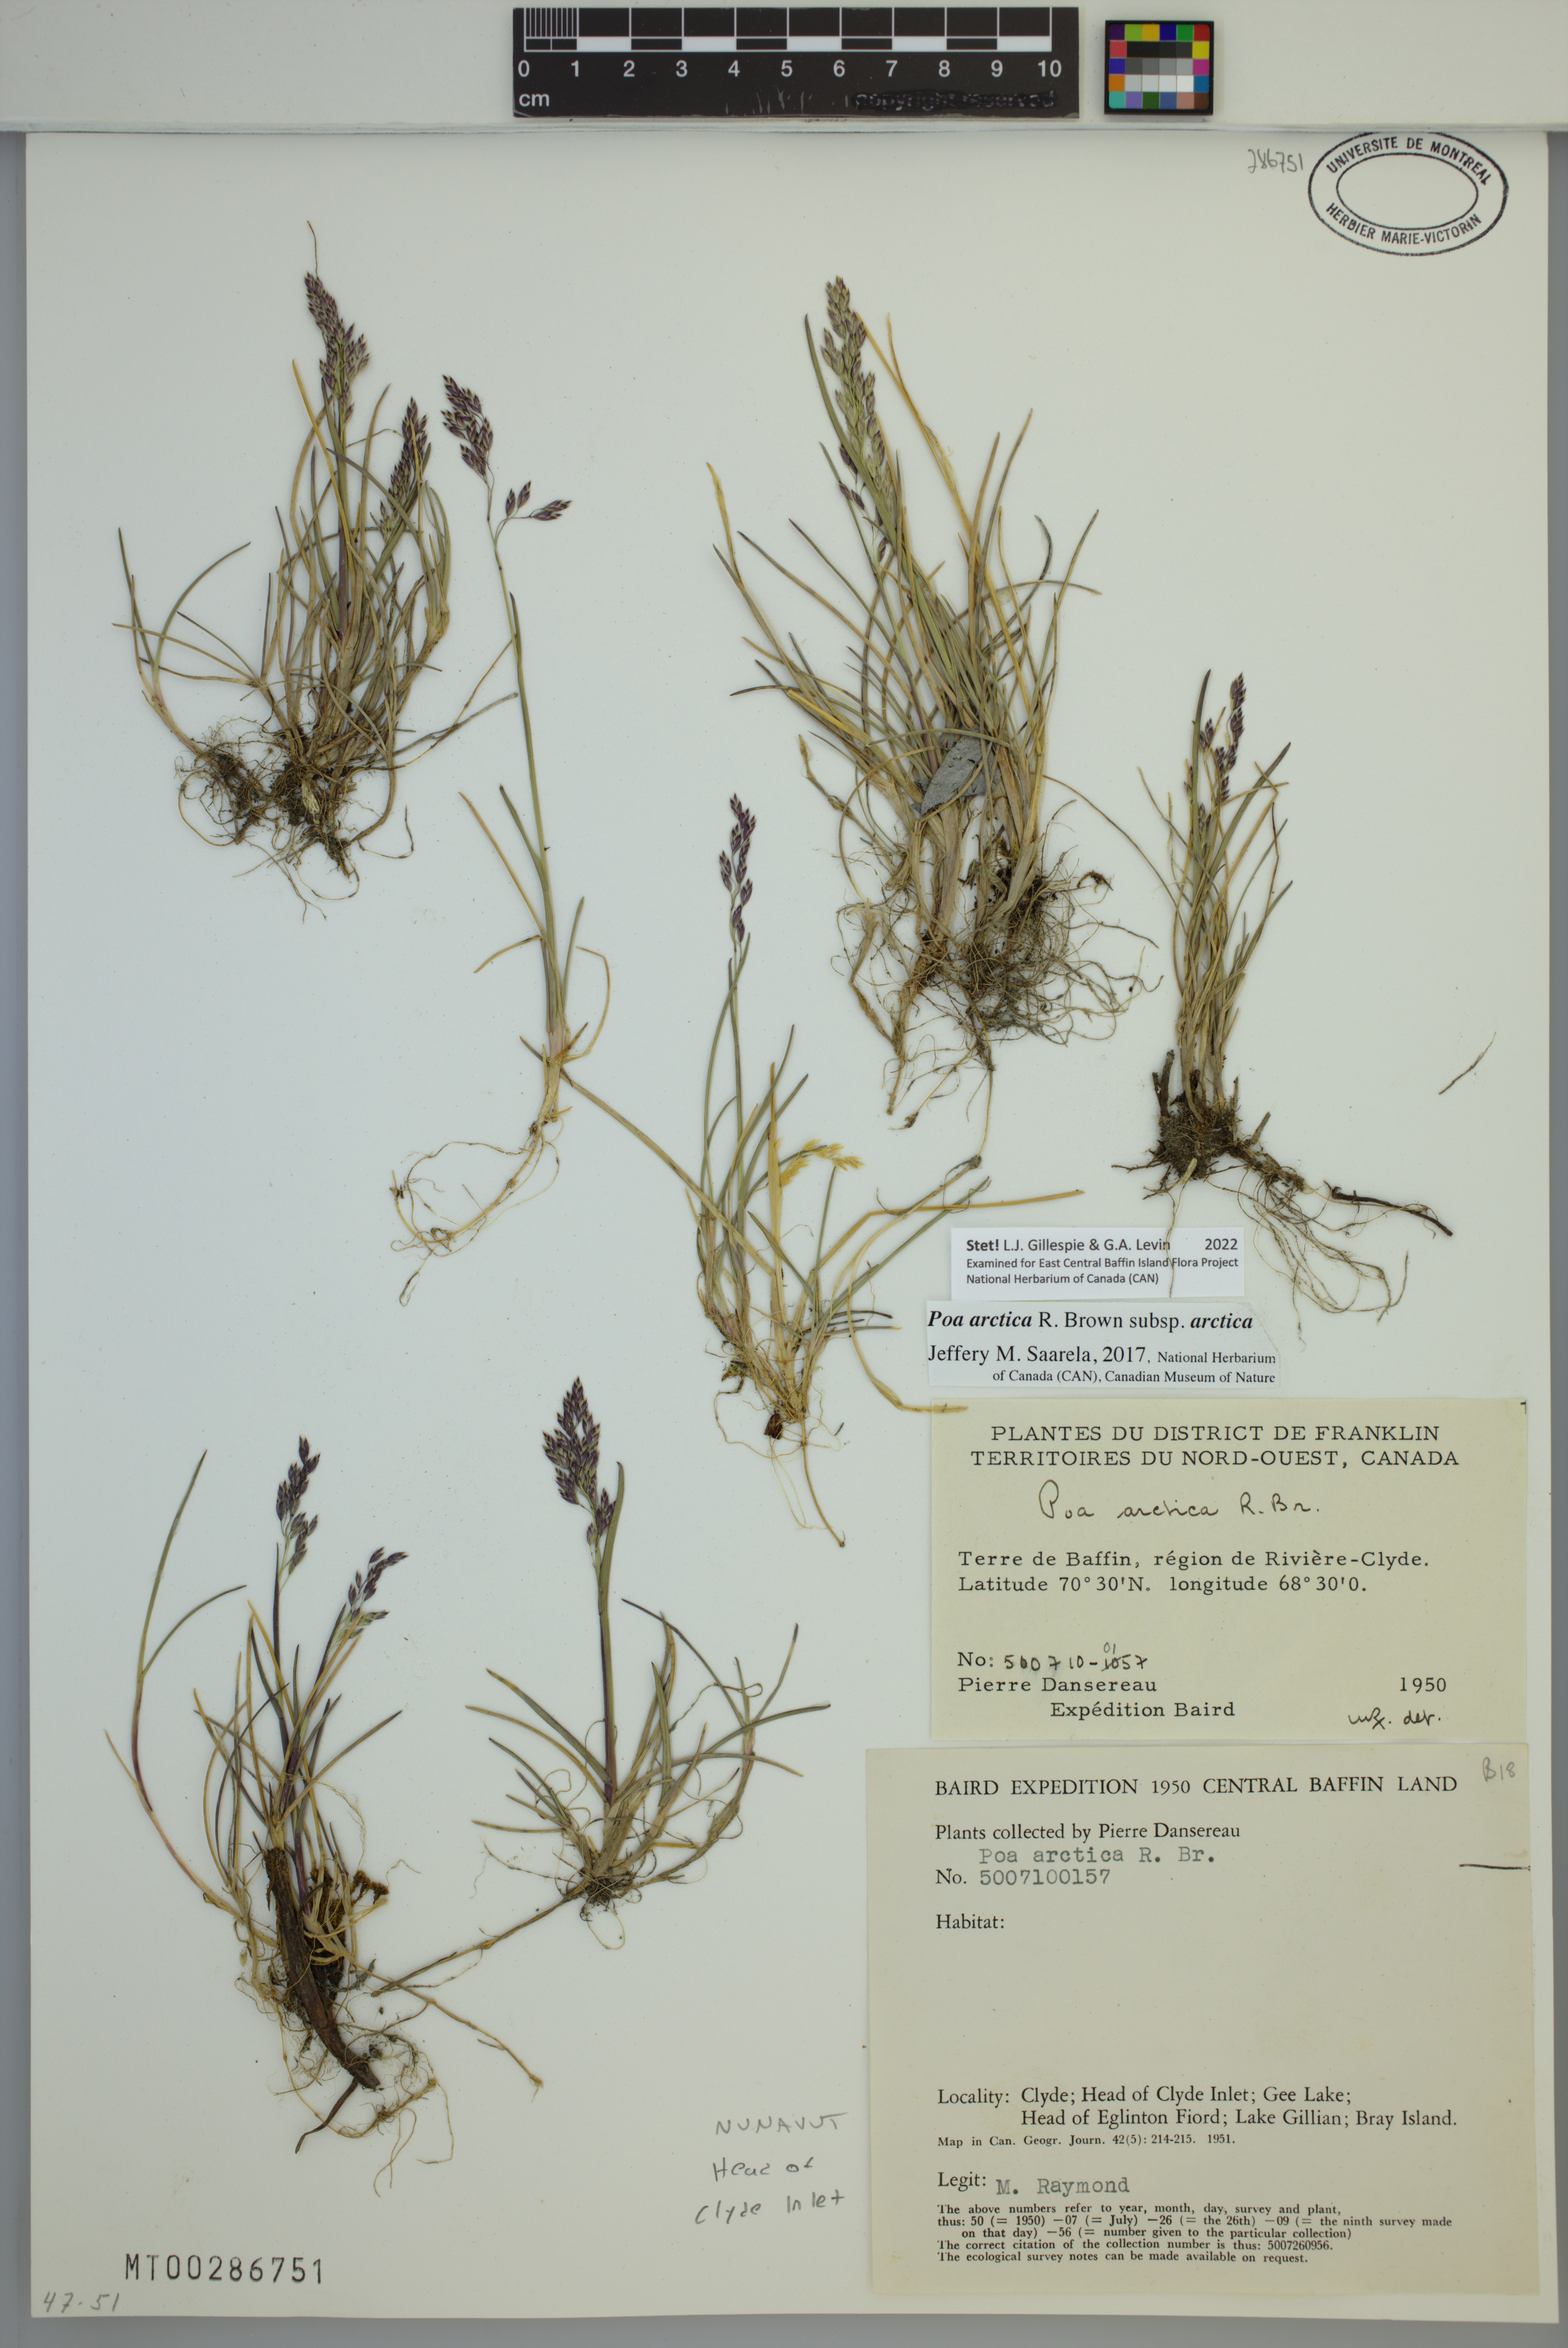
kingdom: Plantae
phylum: Tracheophyta
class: Liliopsida
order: Poales
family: Poaceae
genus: Poa
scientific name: Poa arctica
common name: Arctic bluegrass
